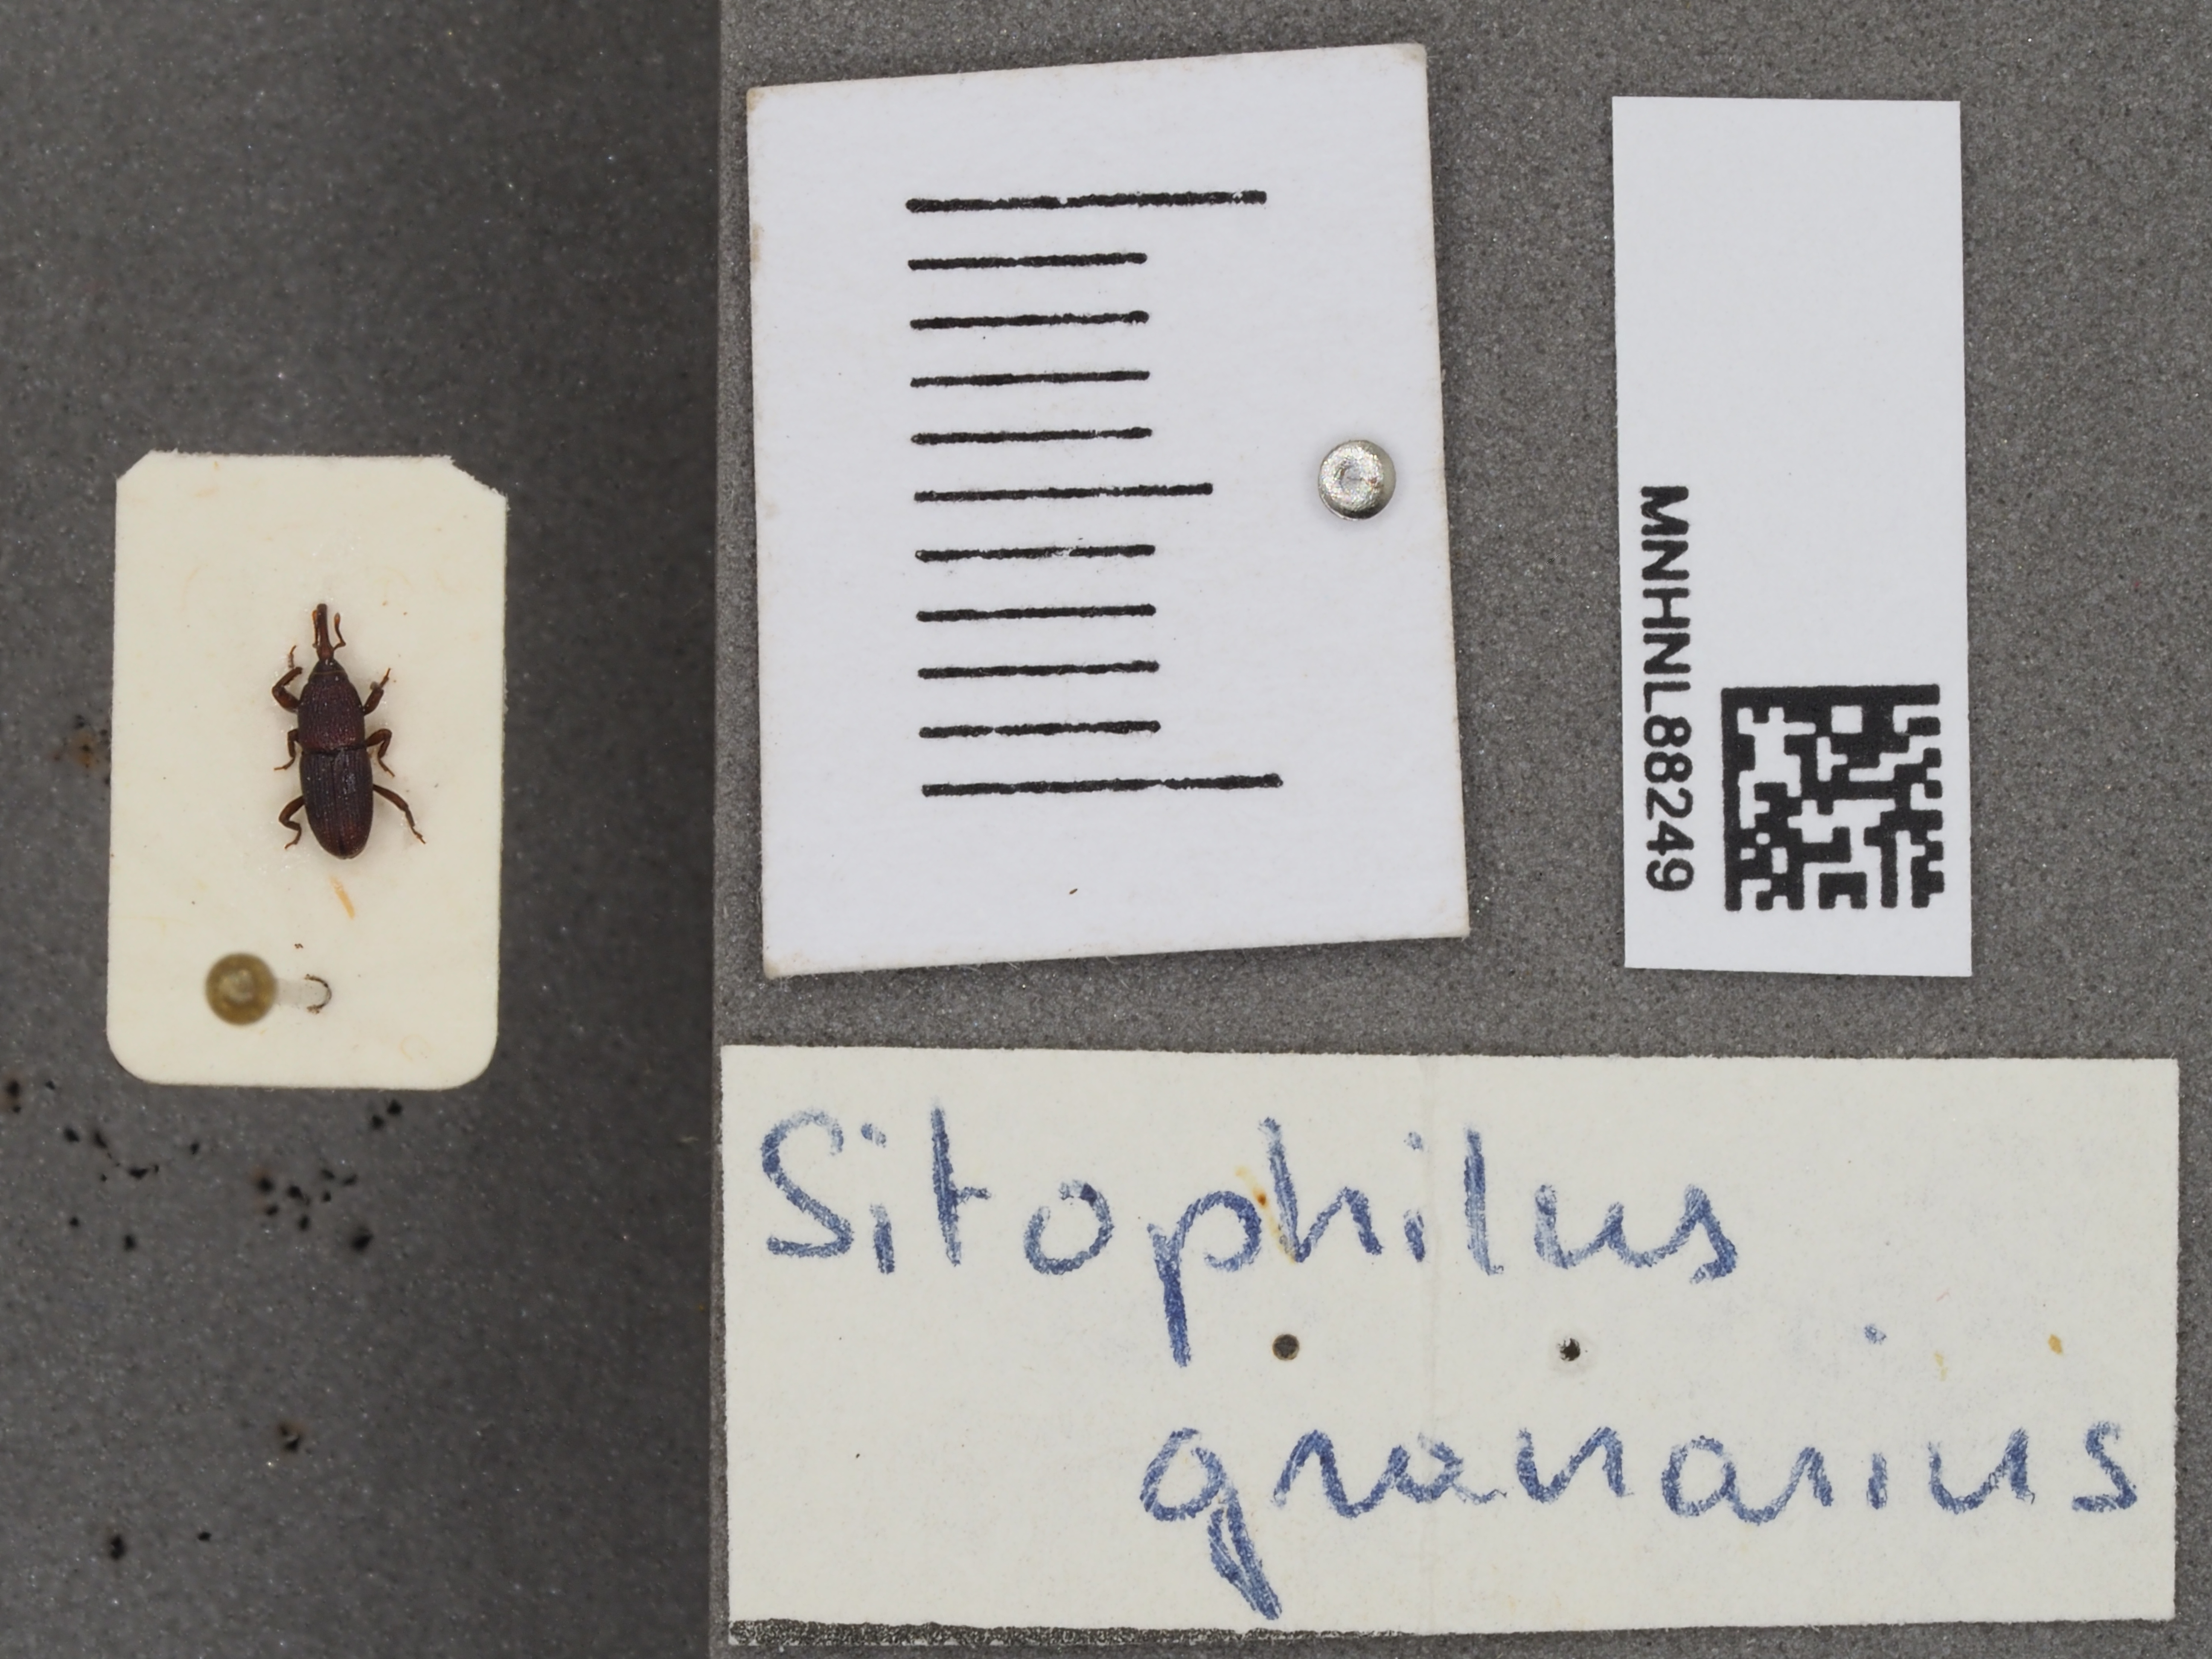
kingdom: Animalia
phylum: Arthropoda
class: Insecta
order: Coleoptera
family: Dryophthoridae
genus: Sitophilus
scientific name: Sitophilus granarius
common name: Granary weevil
